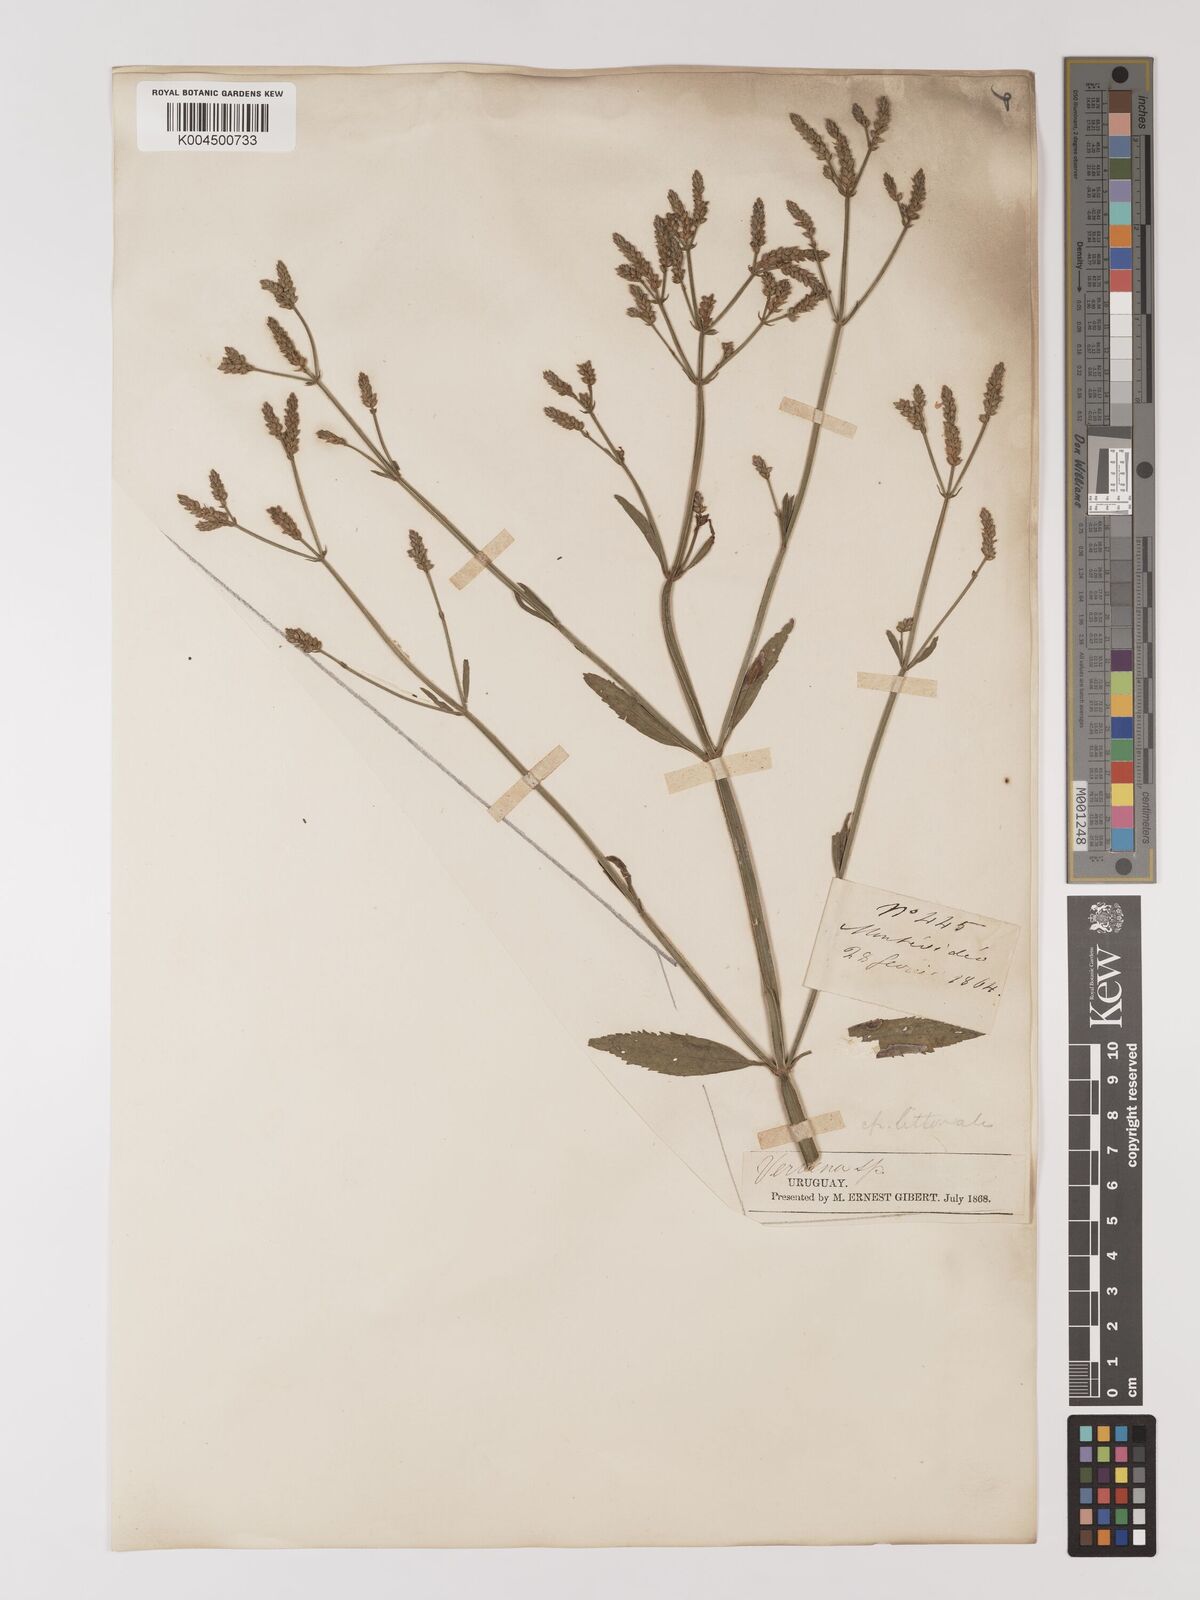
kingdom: Plantae
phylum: Tracheophyta
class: Magnoliopsida
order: Lamiales
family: Verbenaceae
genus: Verbena
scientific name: Verbena litoralis
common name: Seashore vervain
